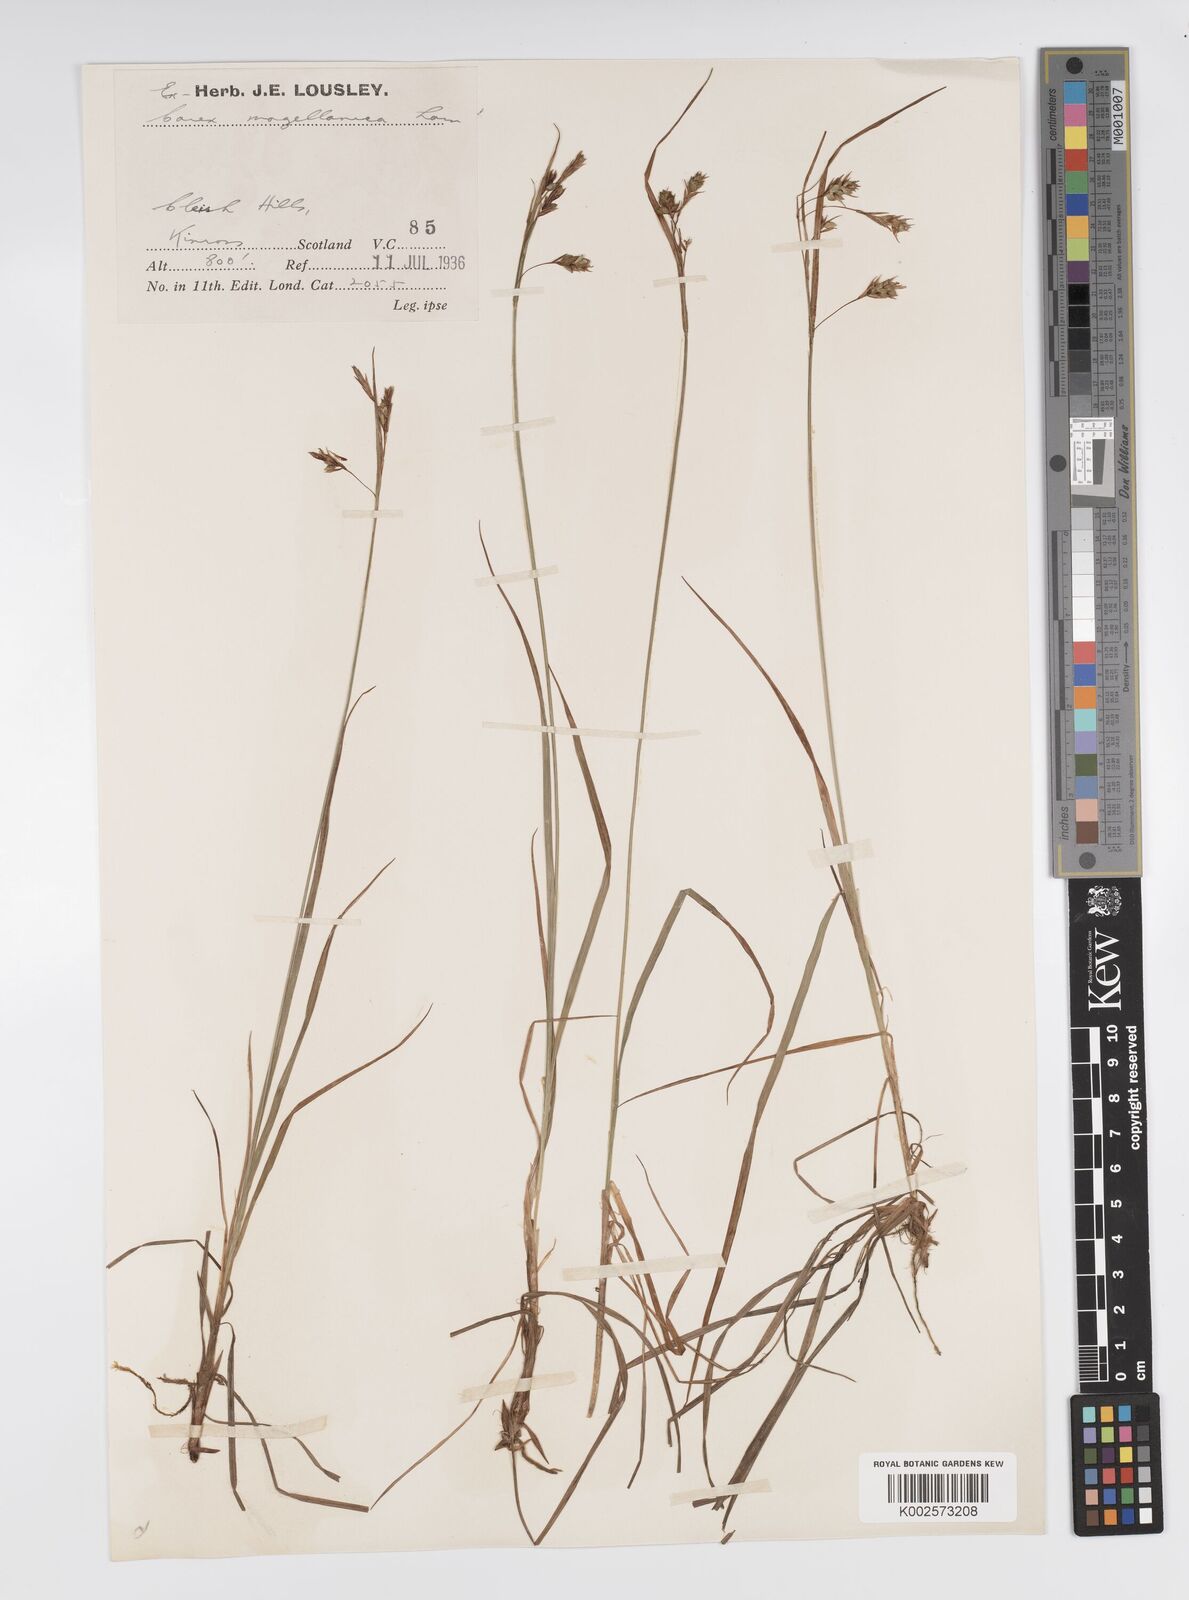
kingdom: Plantae
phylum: Tracheophyta
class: Liliopsida
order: Poales
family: Cyperaceae
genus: Carex
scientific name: Carex magellanica
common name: Bog sedge
